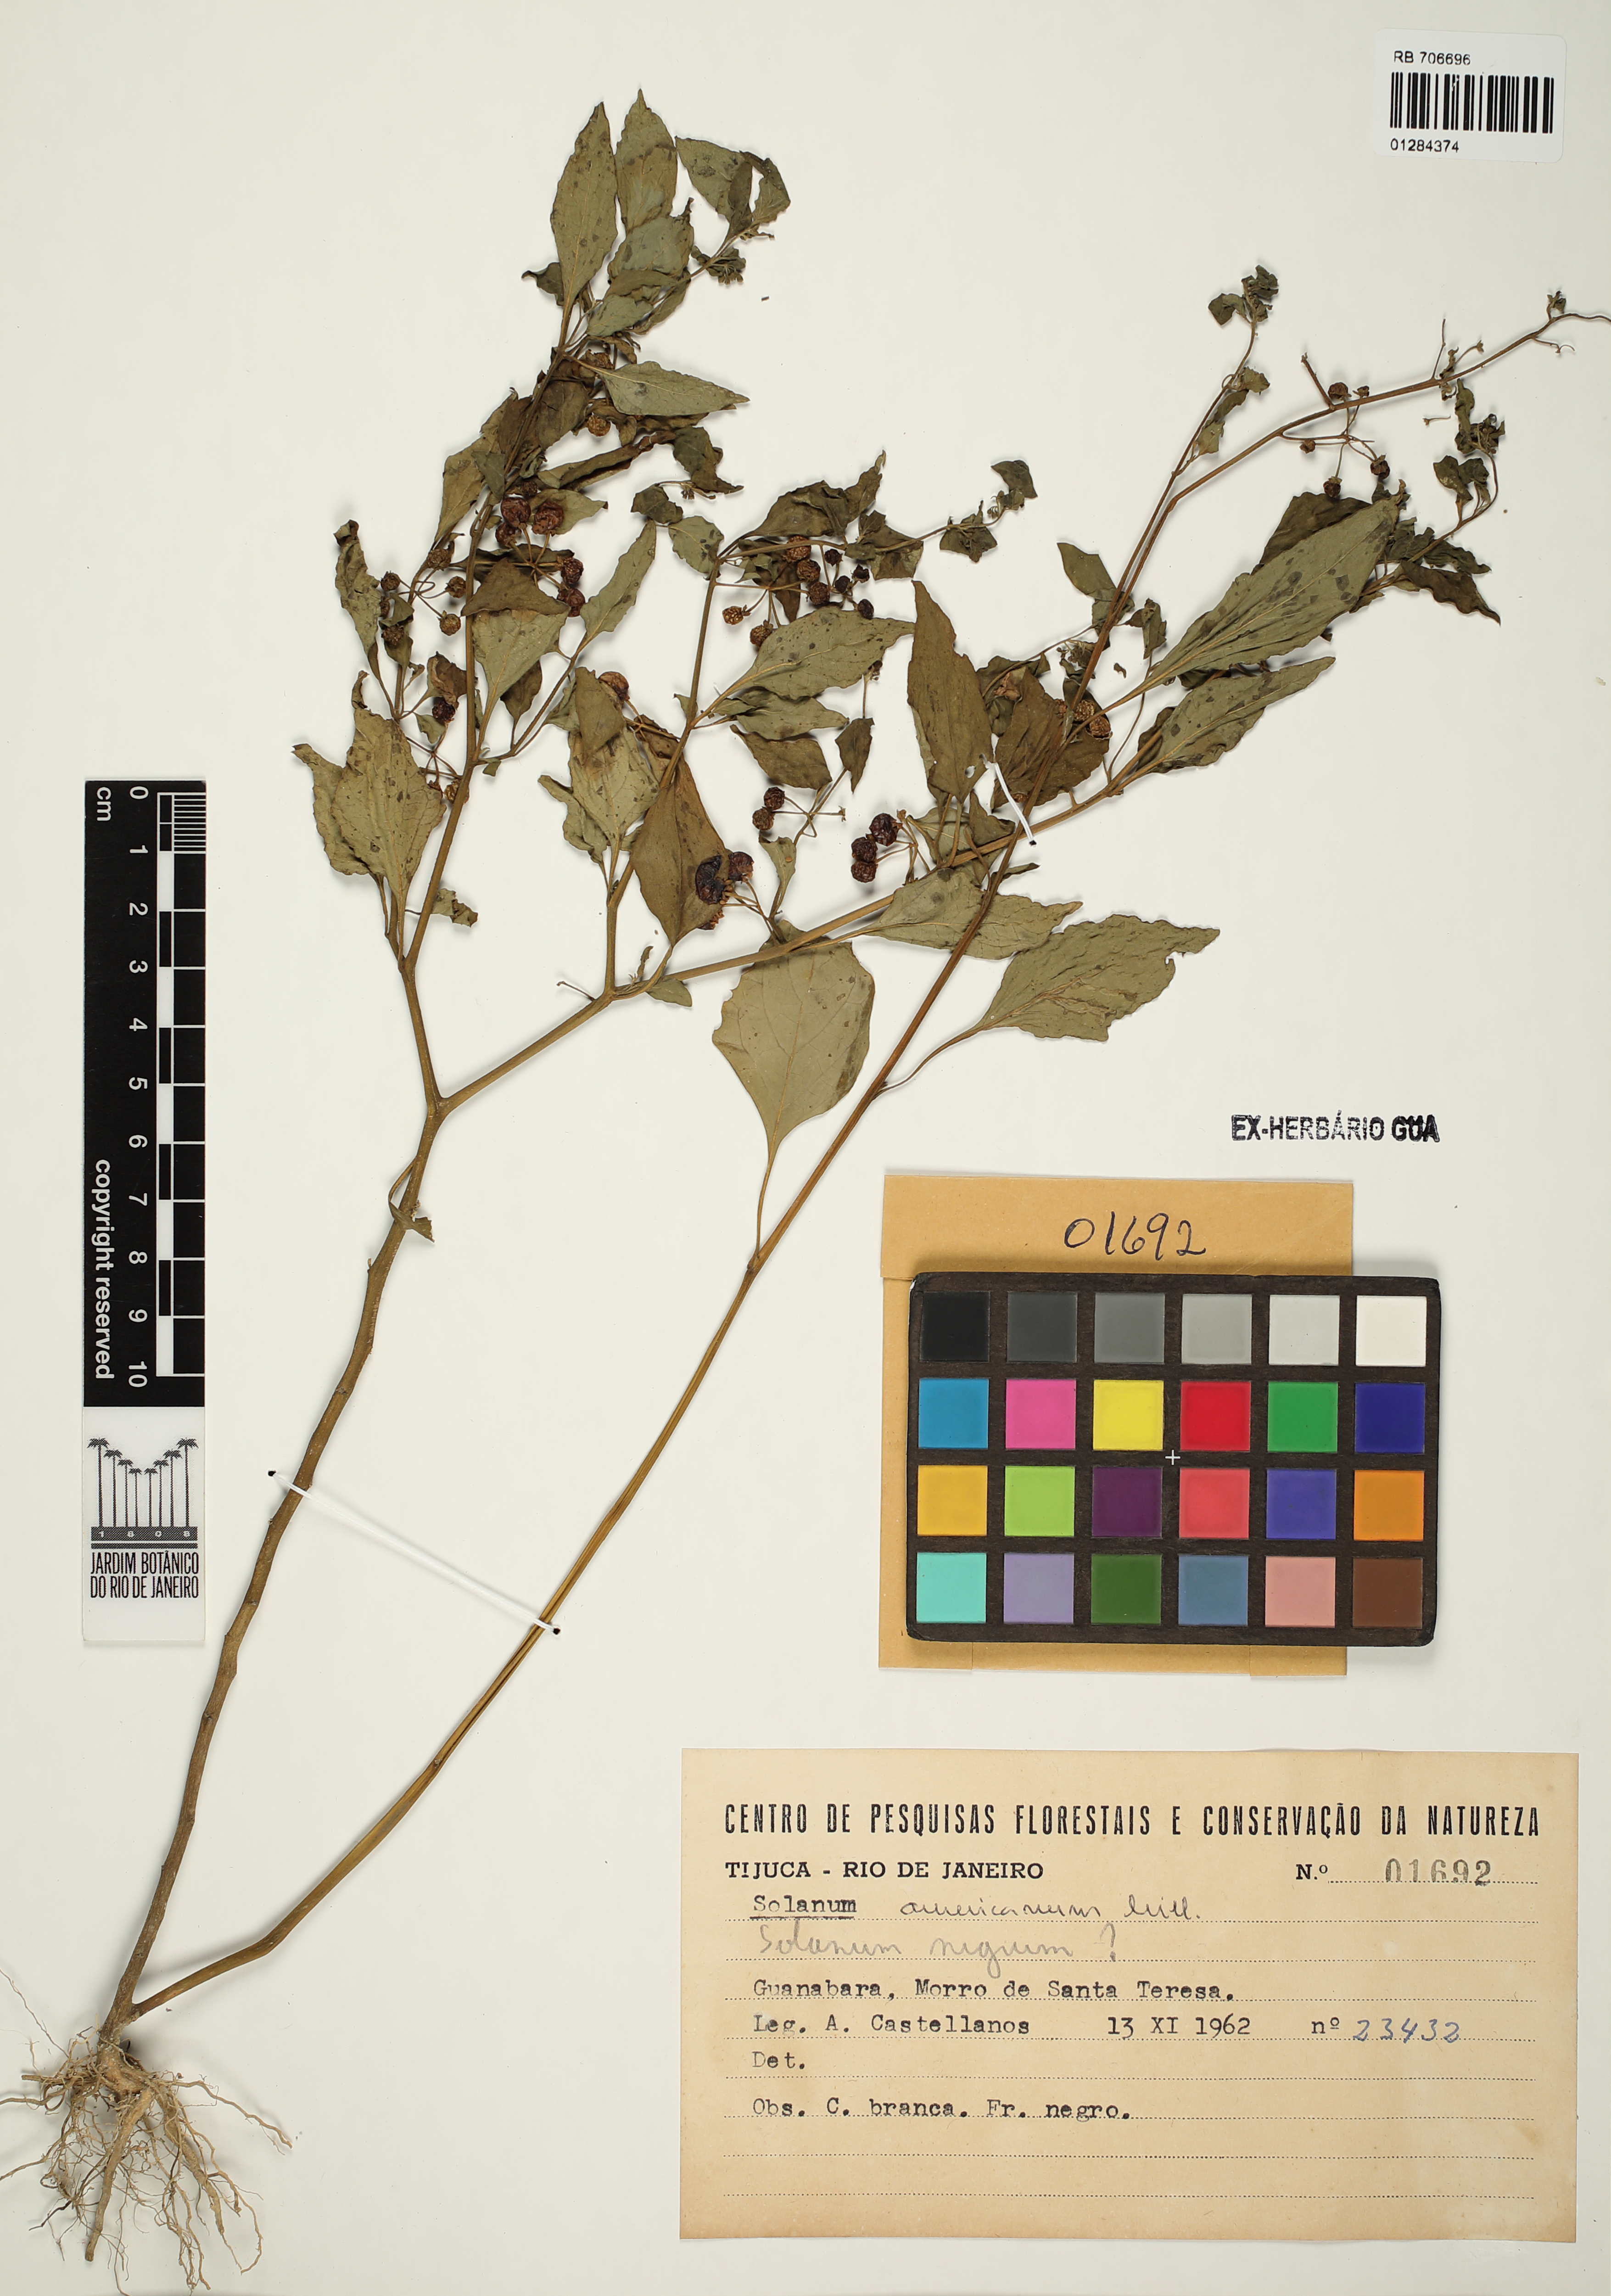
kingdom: Plantae
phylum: Tracheophyta
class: Magnoliopsida
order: Solanales
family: Solanaceae
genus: Solanum
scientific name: Solanum nigrum
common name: Black nightshade
